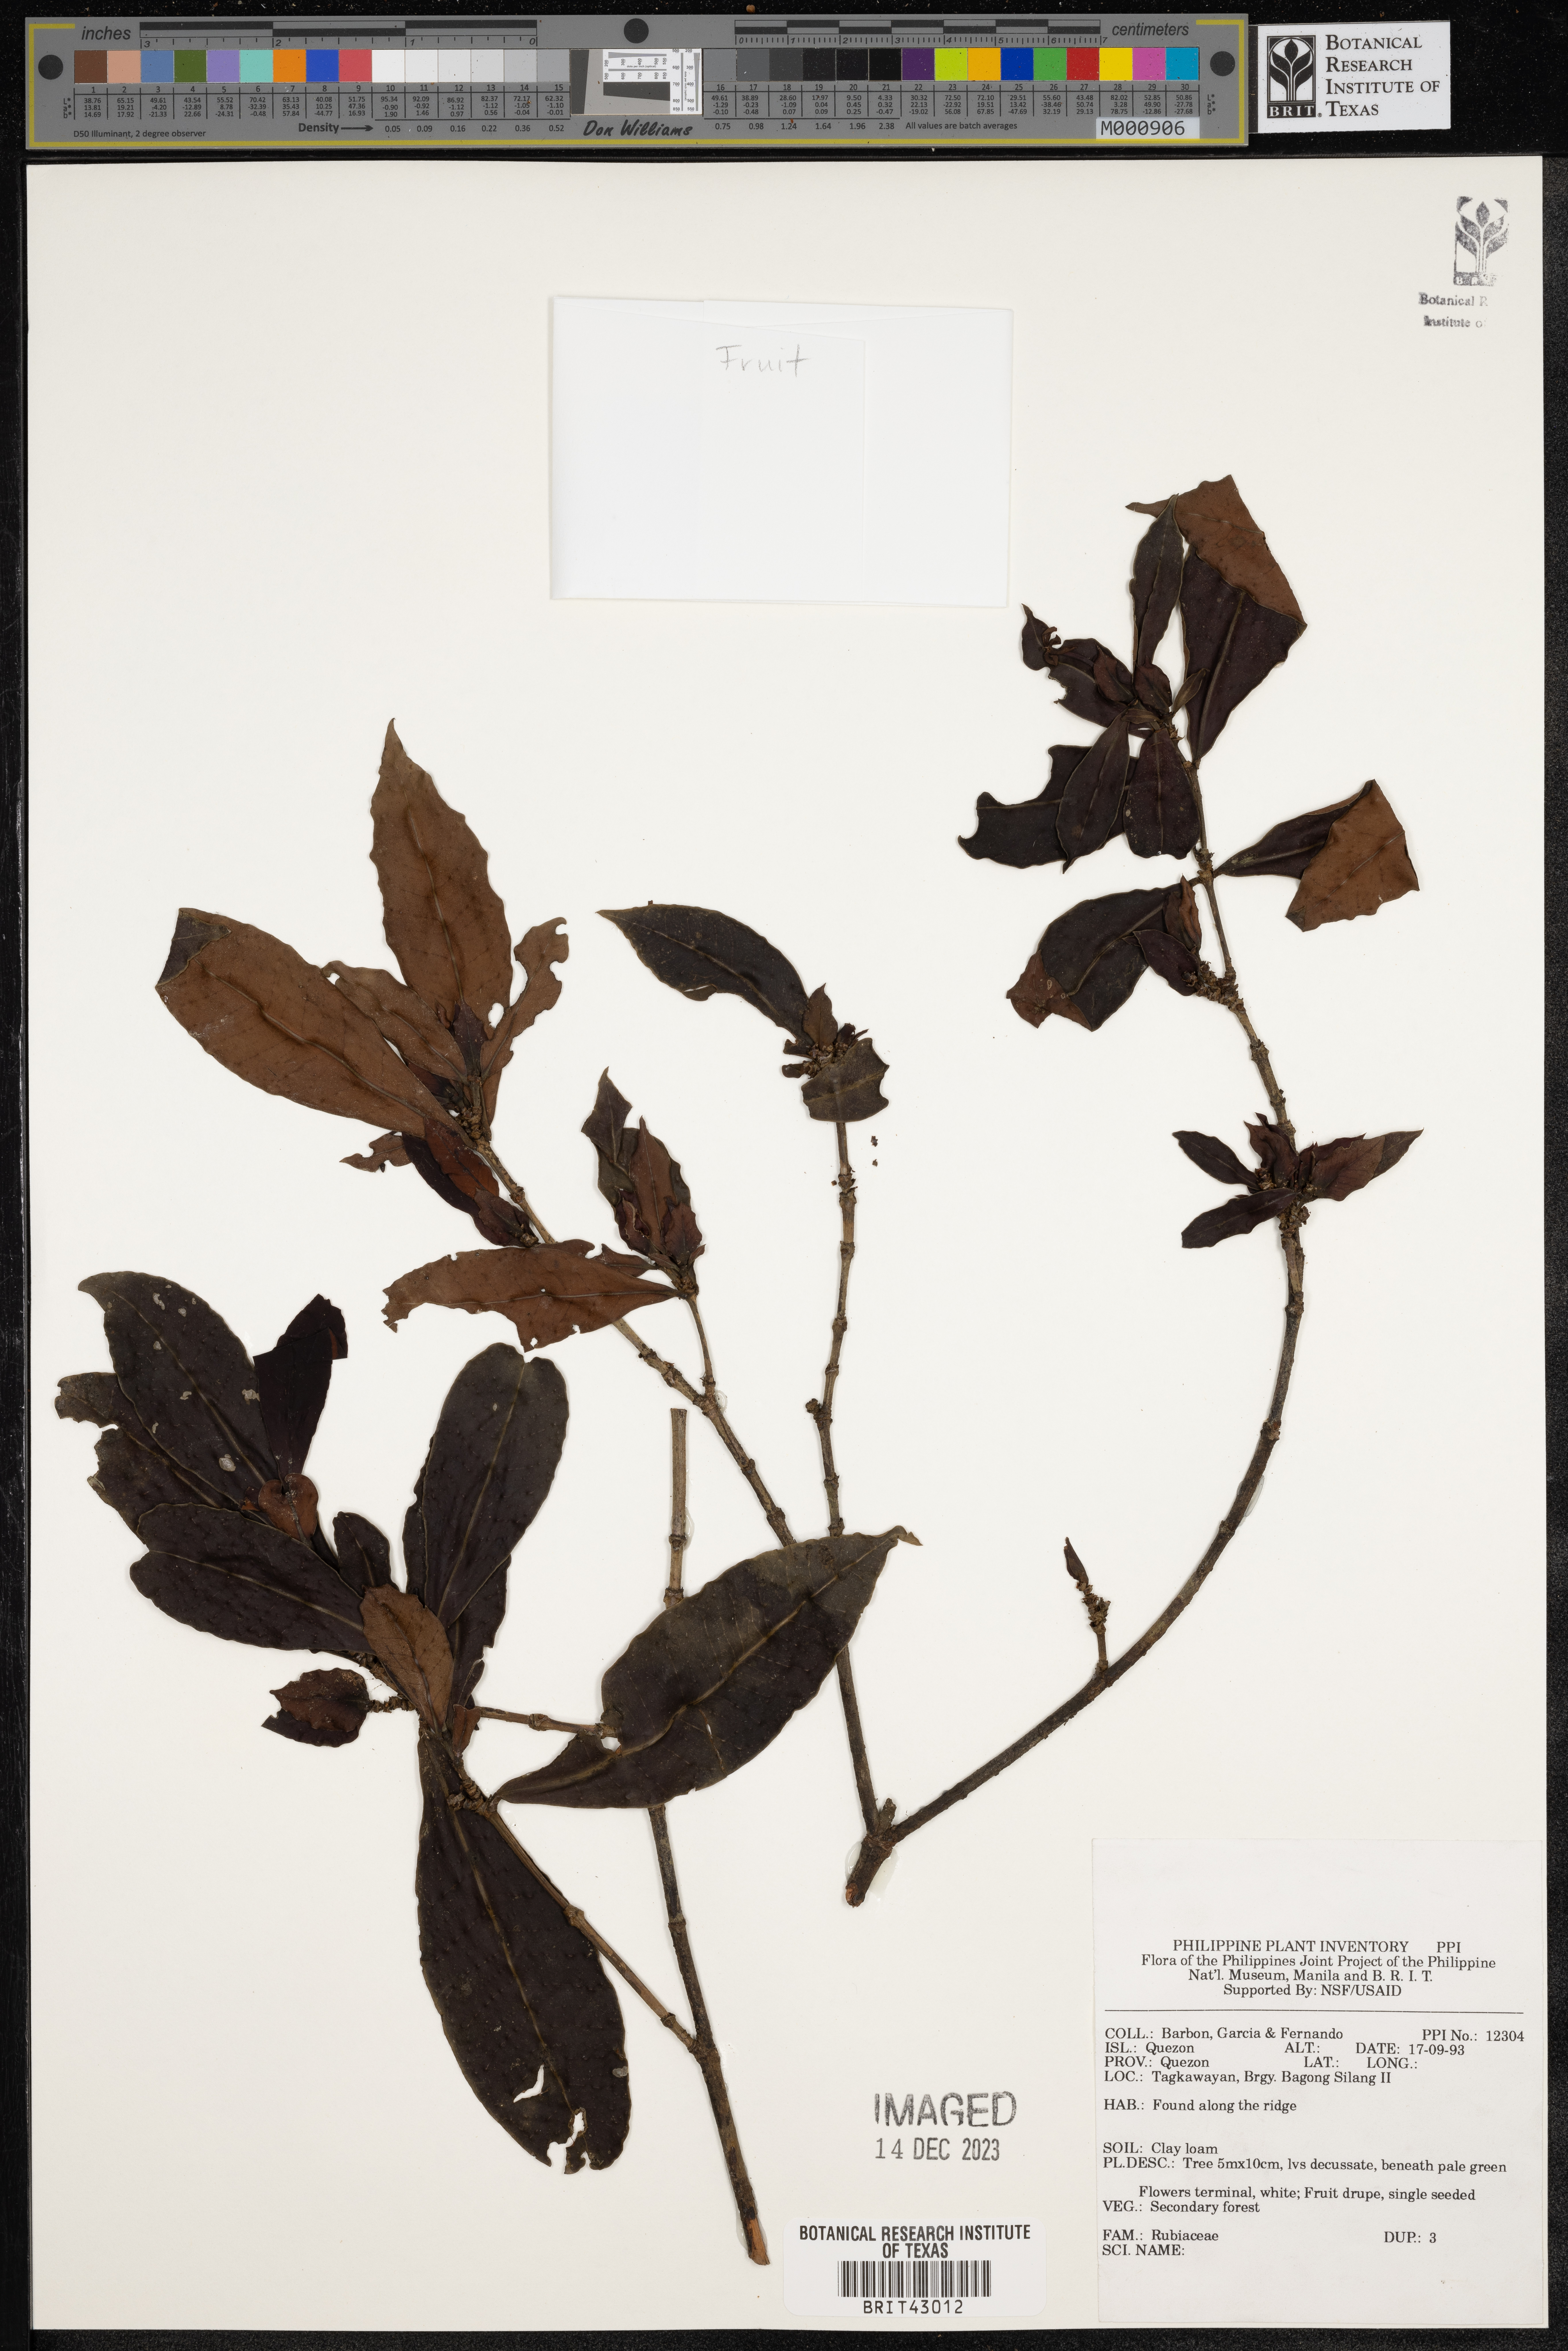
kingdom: Plantae
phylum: Tracheophyta
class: Magnoliopsida
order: Gentianales
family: Rubiaceae
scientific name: Rubiaceae
